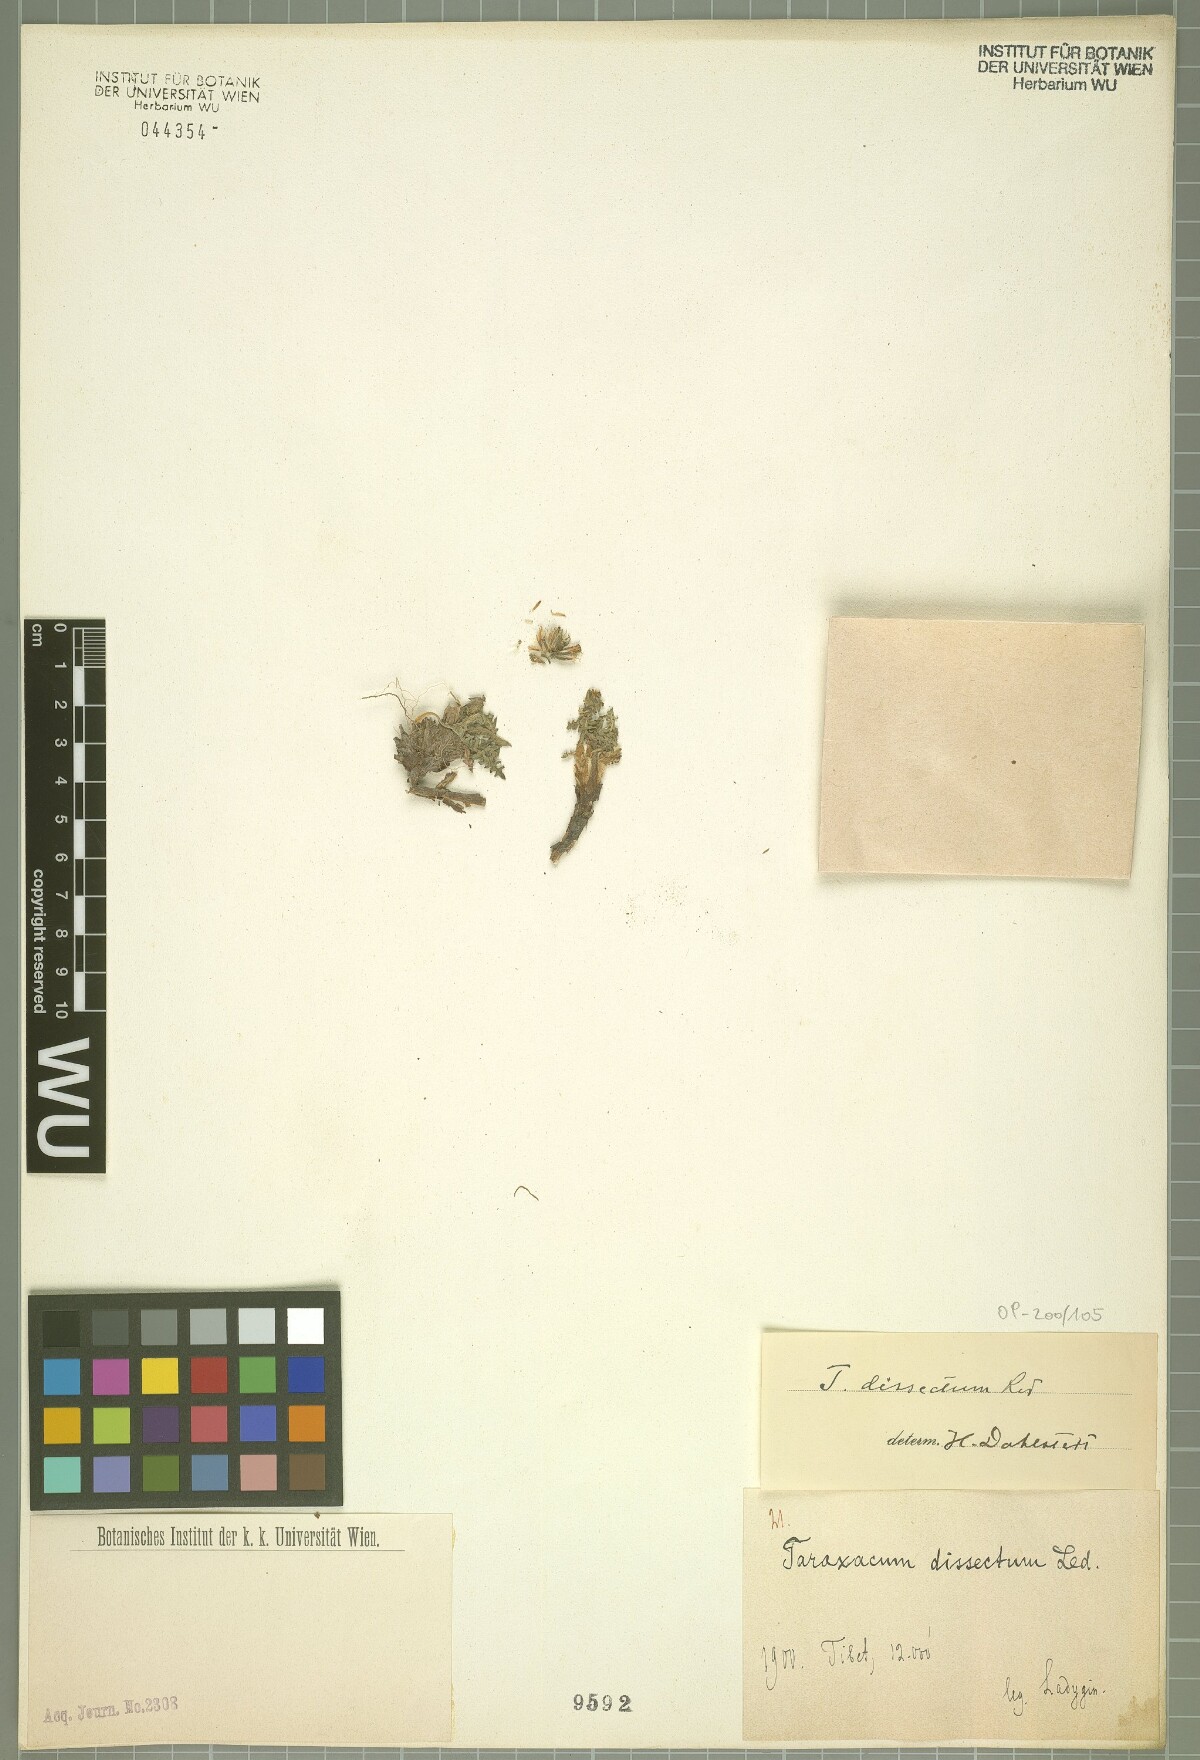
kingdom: Plantae
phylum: Tracheophyta
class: Magnoliopsida
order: Asterales
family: Asteraceae
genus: Taraxacum
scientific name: Taraxacum dissectum
